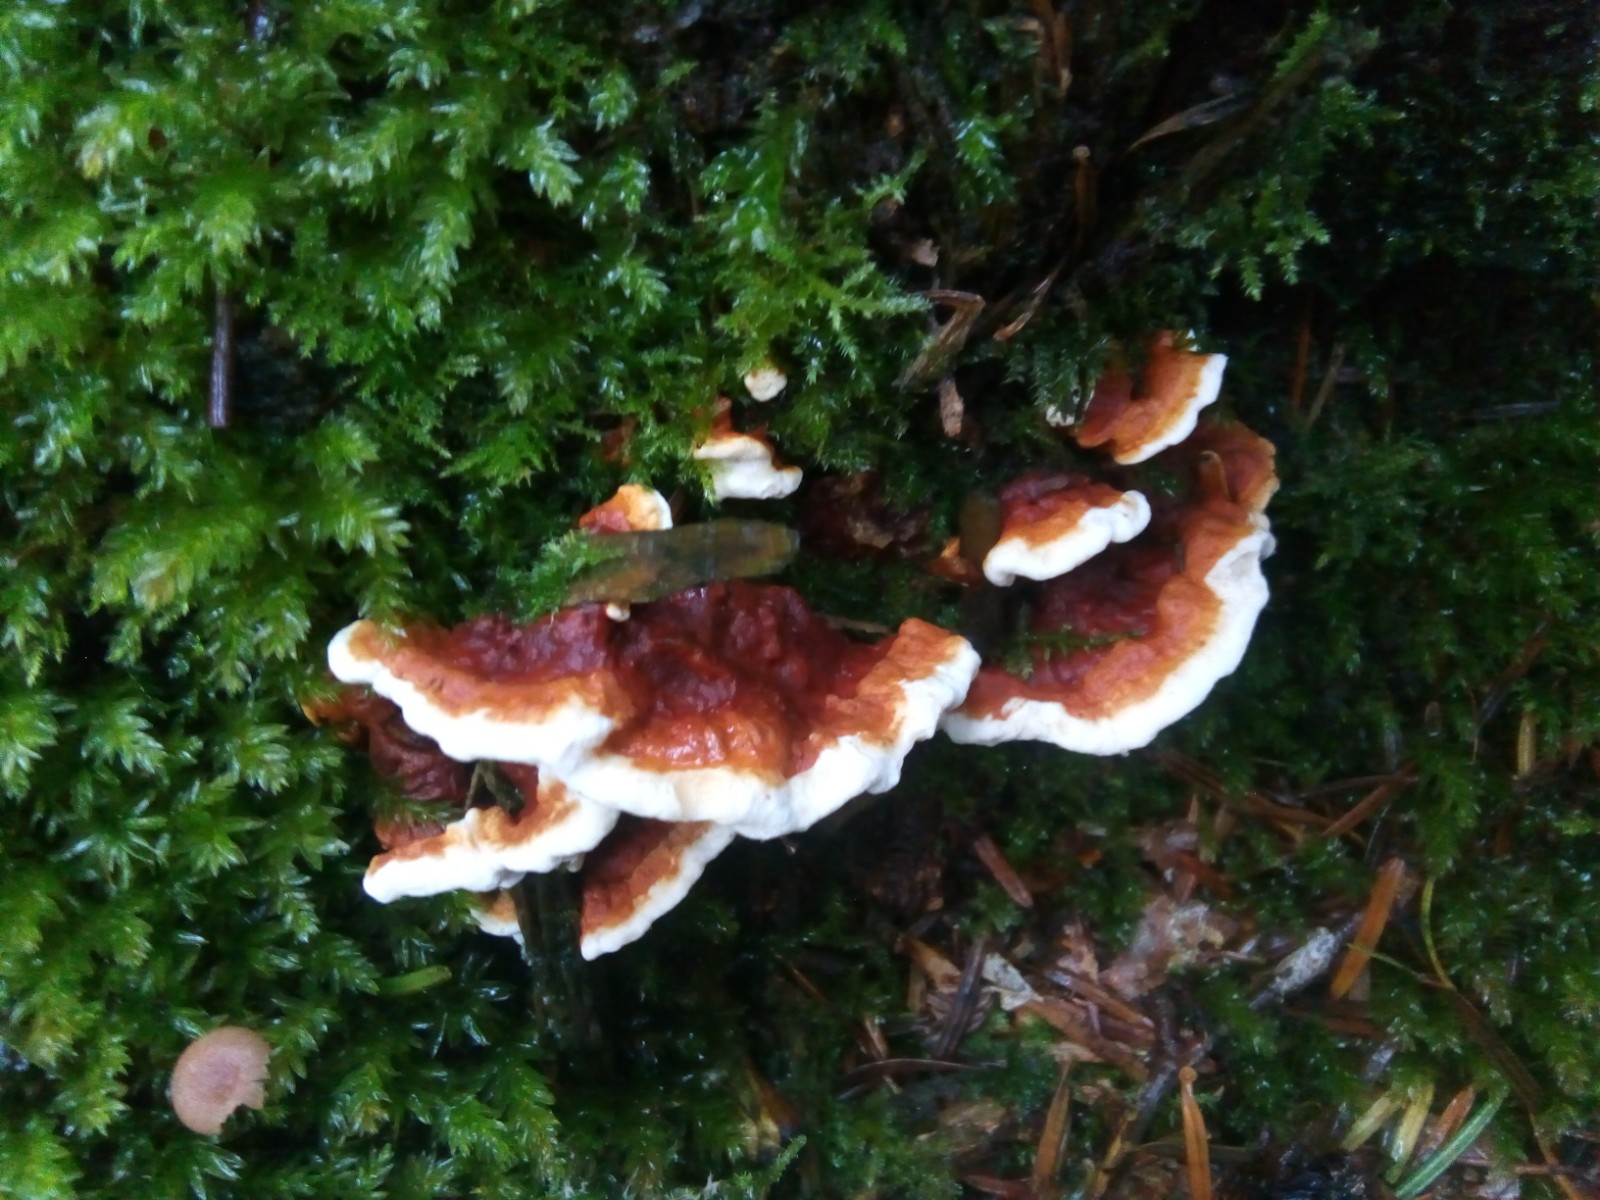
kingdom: Fungi
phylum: Basidiomycota
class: Agaricomycetes
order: Russulales
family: Bondarzewiaceae
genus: Heterobasidion
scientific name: Heterobasidion annosum
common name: almindelig rodfordærver
